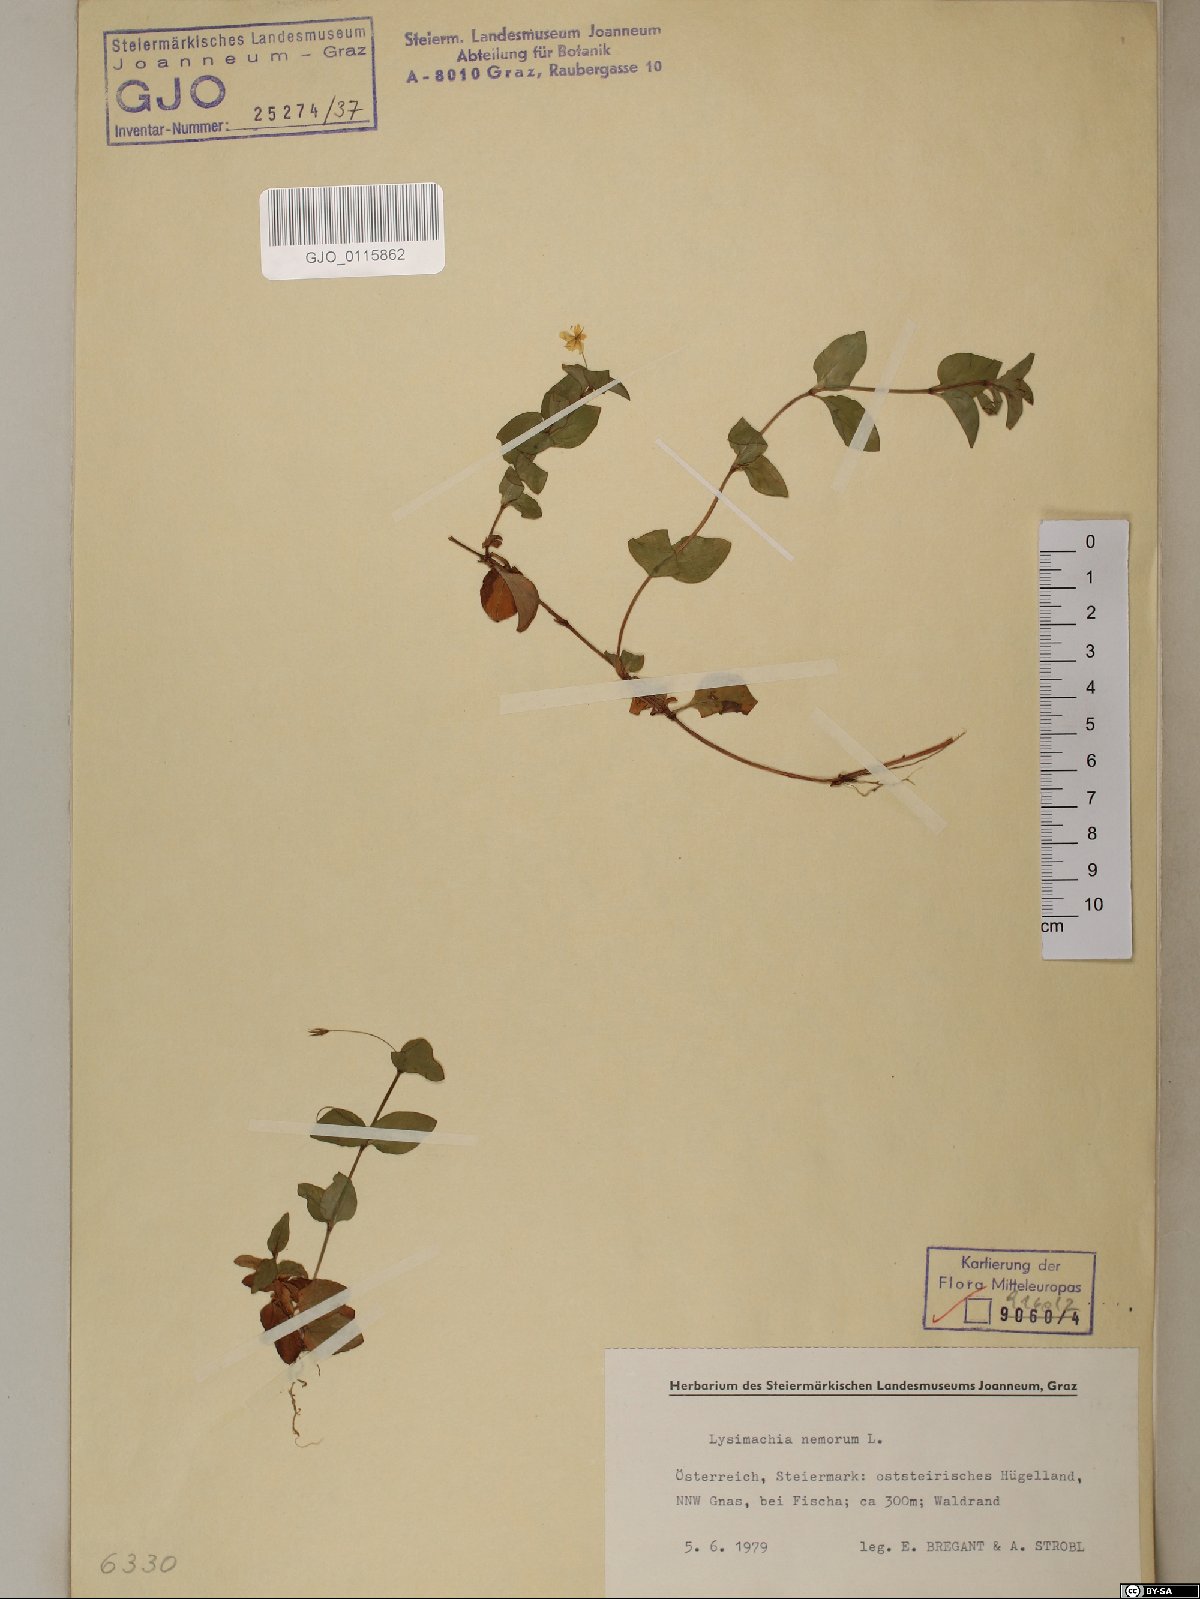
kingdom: Plantae
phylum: Tracheophyta
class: Magnoliopsida
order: Ericales
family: Primulaceae
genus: Lysimachia
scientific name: Lysimachia nemorum
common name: Yellow pimpernel
